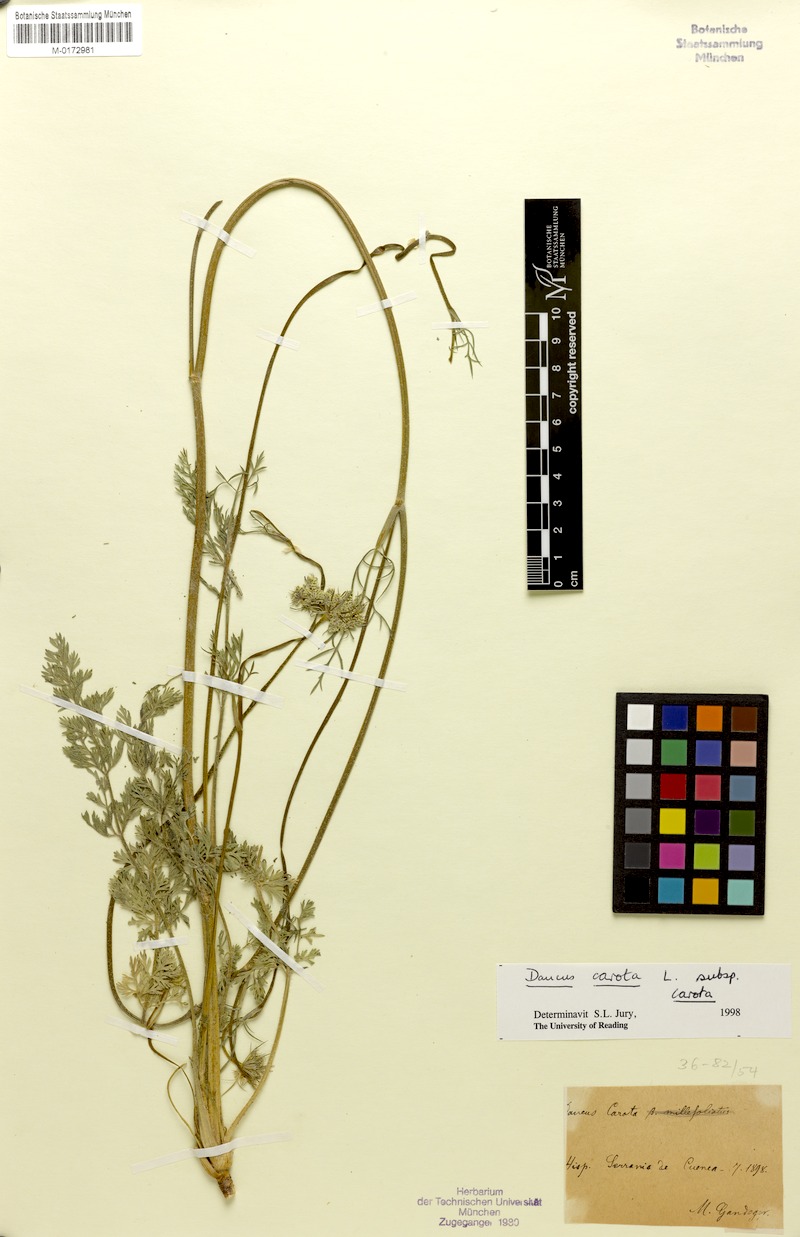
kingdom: Plantae
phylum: Tracheophyta
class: Magnoliopsida
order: Apiales
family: Apiaceae
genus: Daucus
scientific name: Daucus carota
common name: Wild carrot
